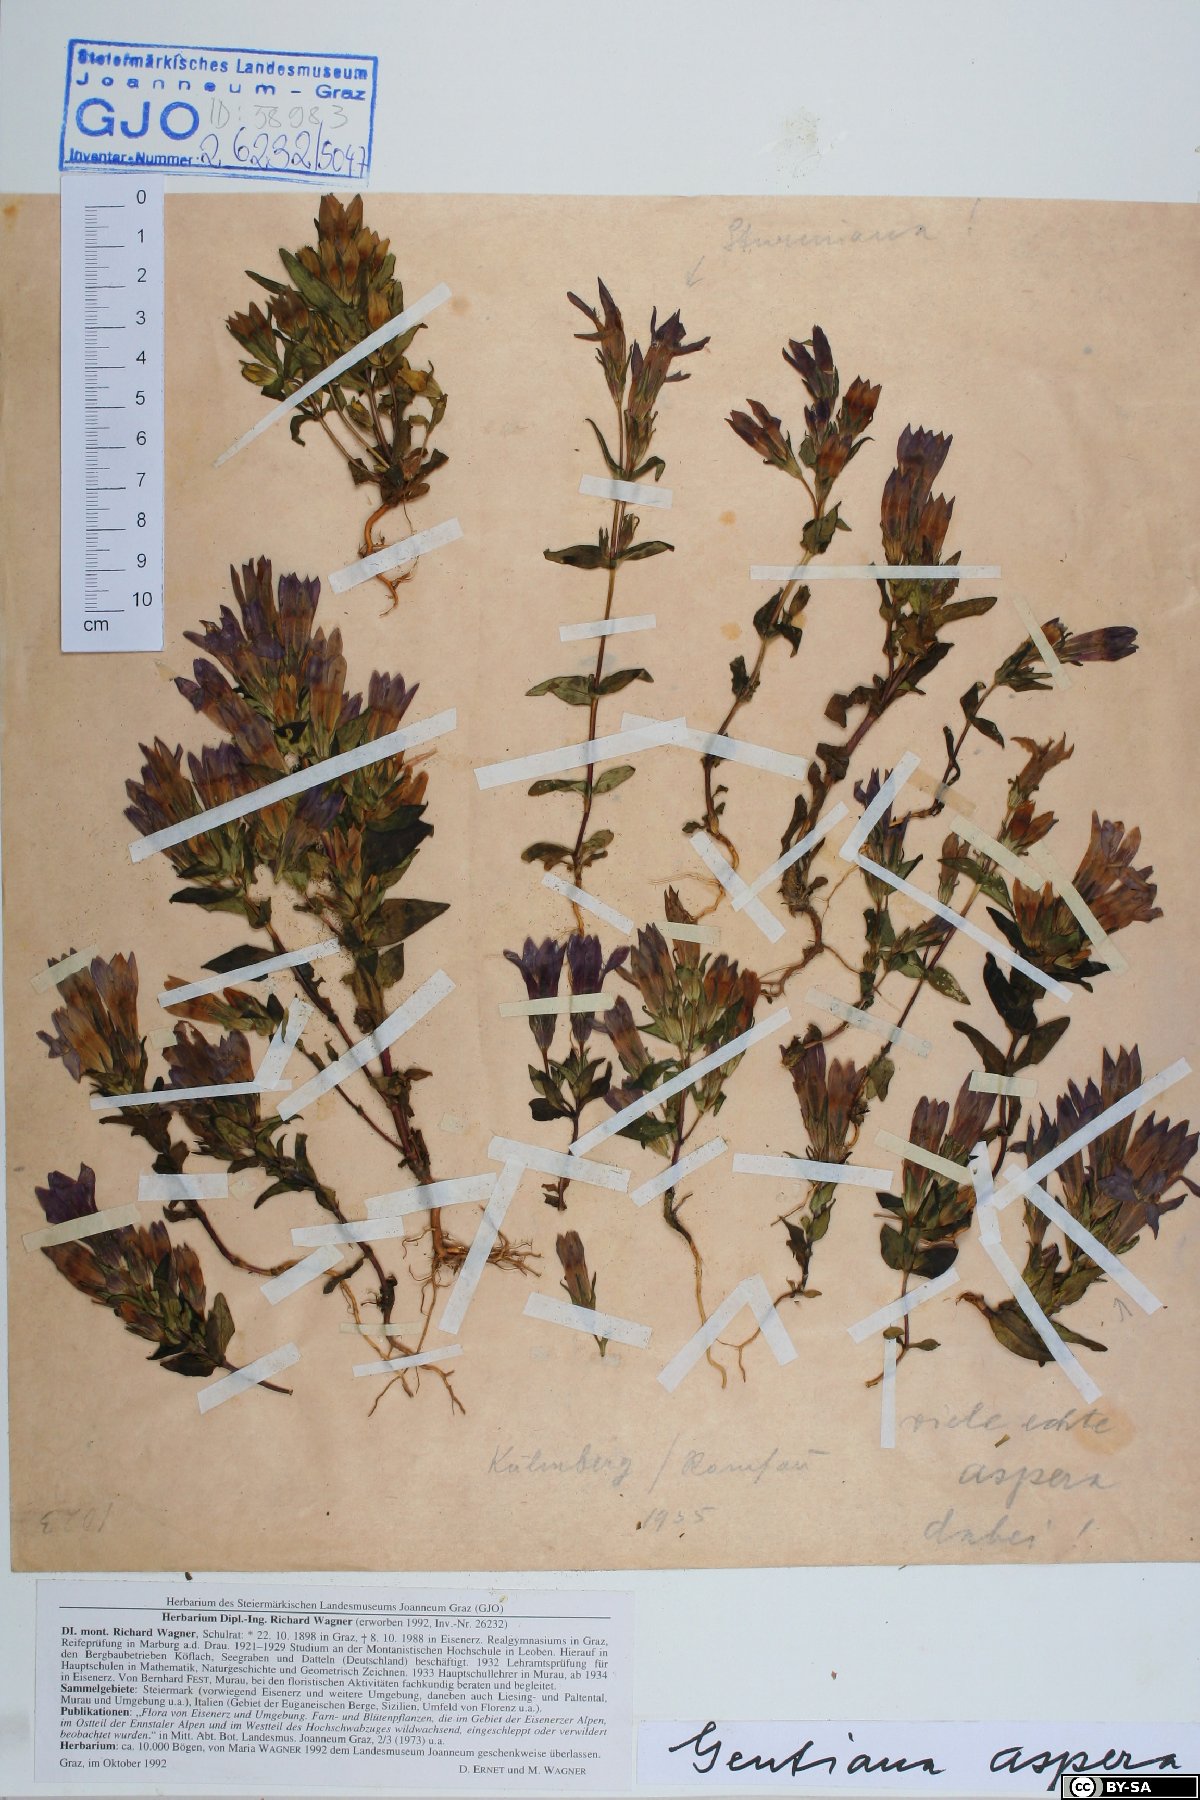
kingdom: Plantae
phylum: Tracheophyta
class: Magnoliopsida
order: Gentianales
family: Gentianaceae
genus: Gentianella
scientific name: Gentianella obtusifolia
